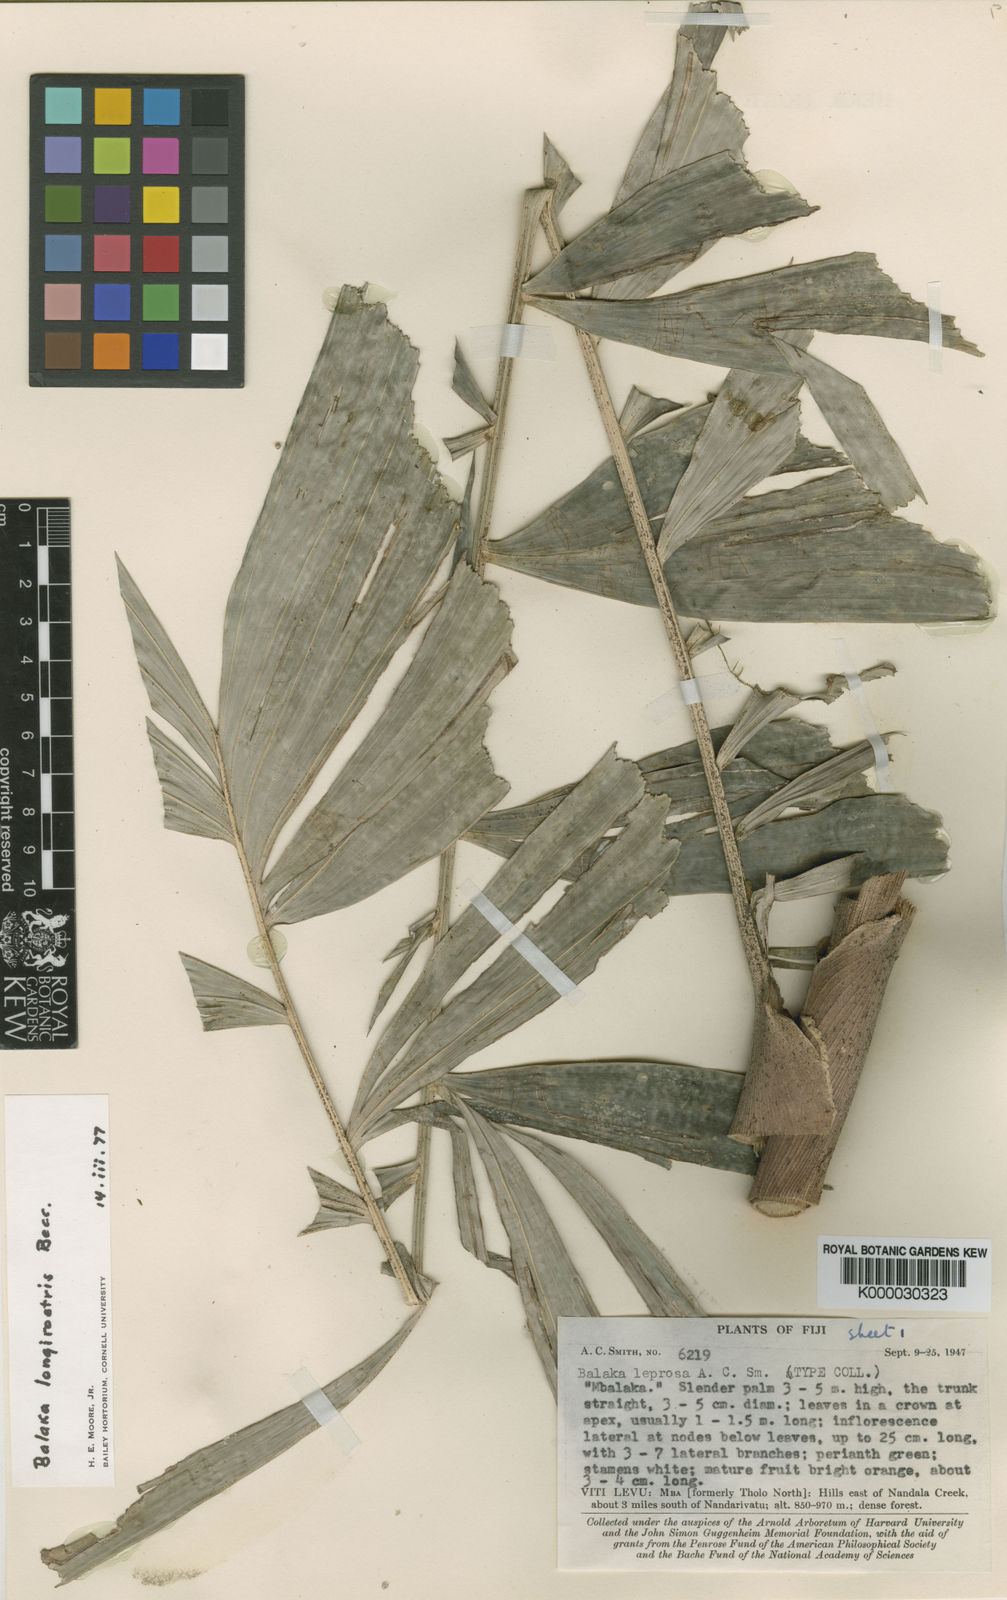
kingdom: Plantae
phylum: Tracheophyta
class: Liliopsida
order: Arecales
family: Arecaceae
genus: Balaka
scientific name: Balaka samoensis
